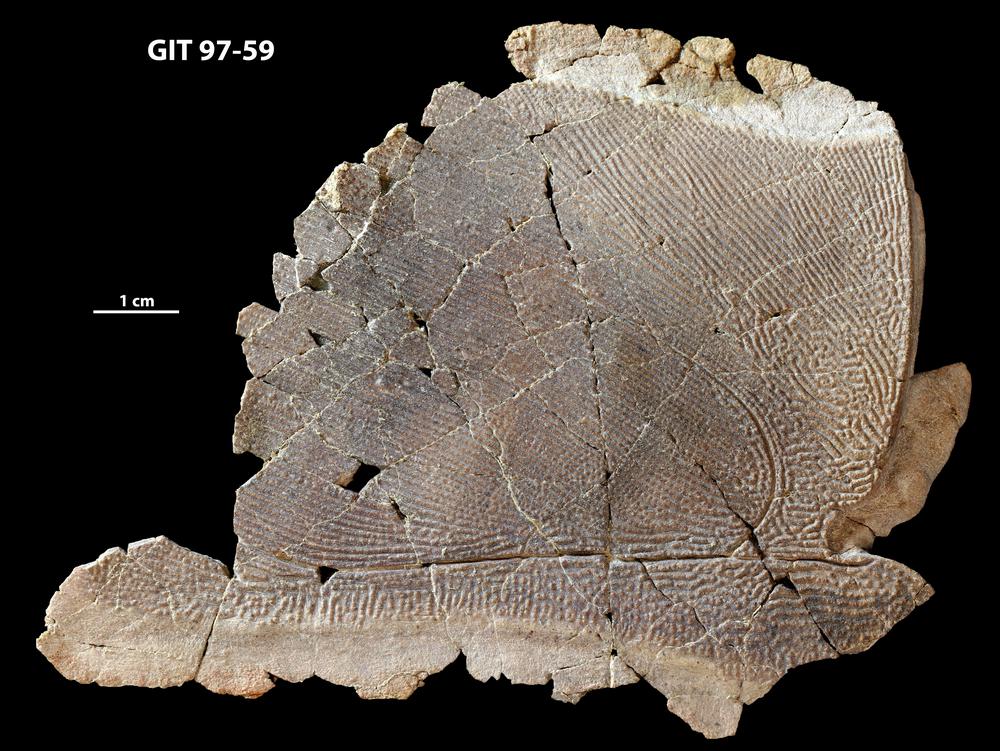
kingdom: Animalia
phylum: Chordata
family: Holonematidae
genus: Holonema
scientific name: Holonema
